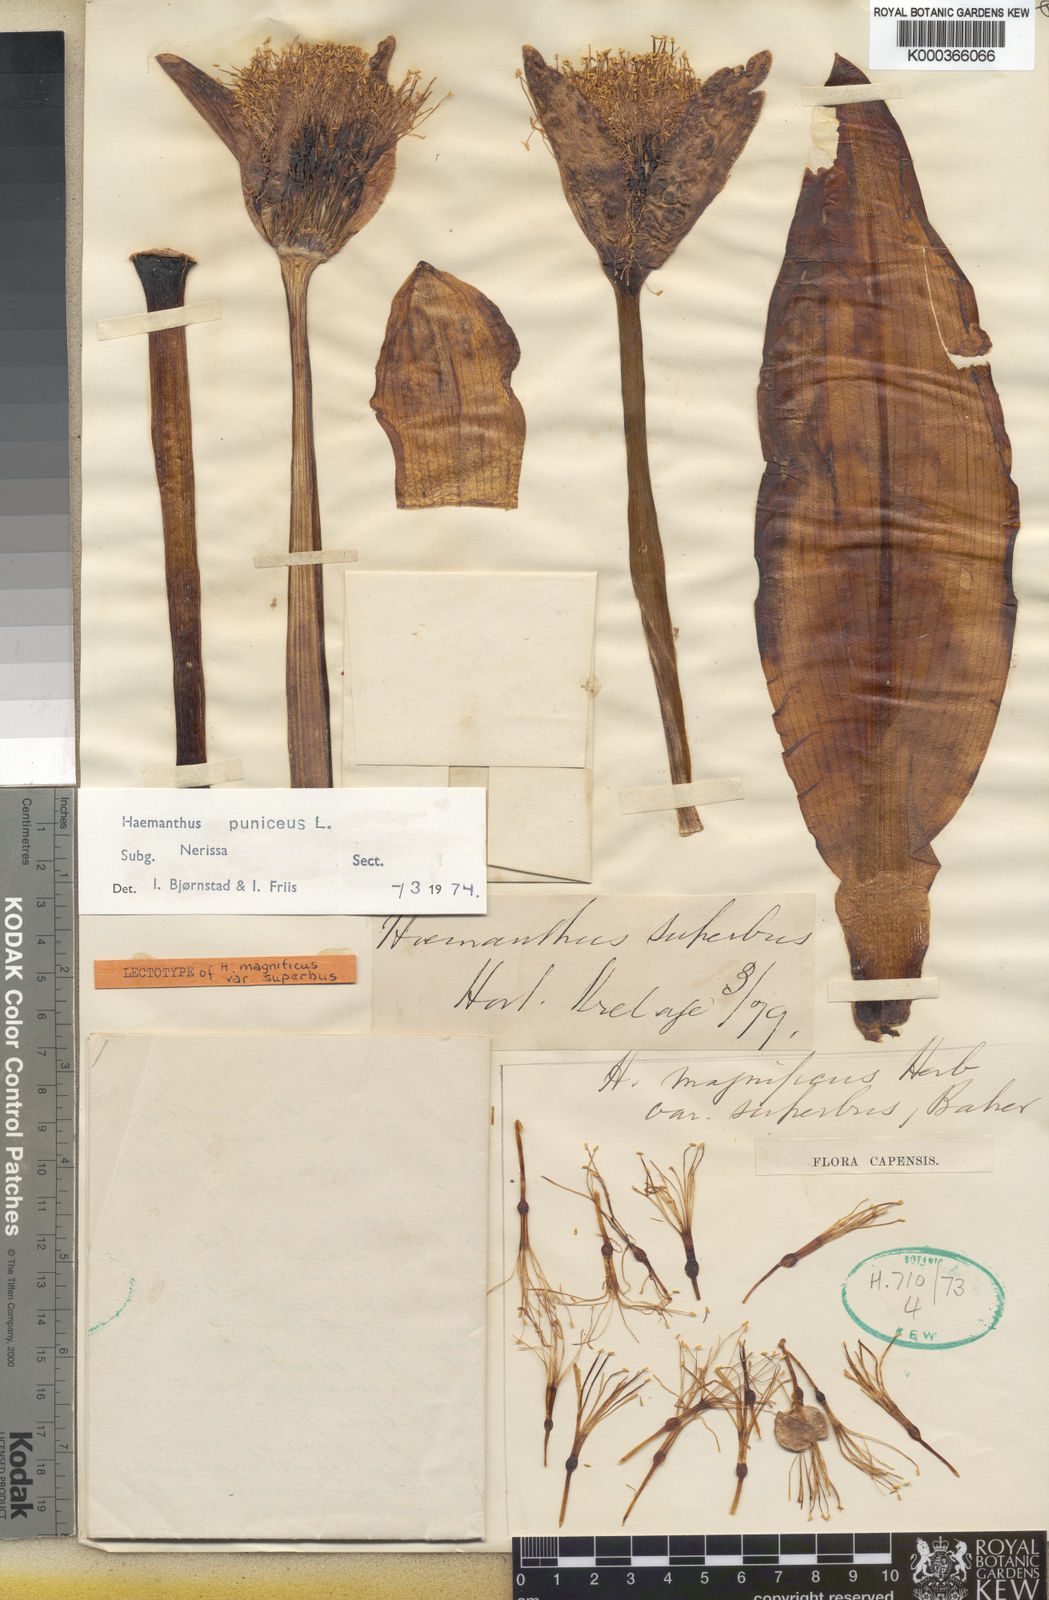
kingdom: Plantae
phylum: Tracheophyta
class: Liliopsida
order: Asparagales
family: Amaryllidaceae
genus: Scadoxus
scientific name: Scadoxus puniceus
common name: Royal-paintbrush
